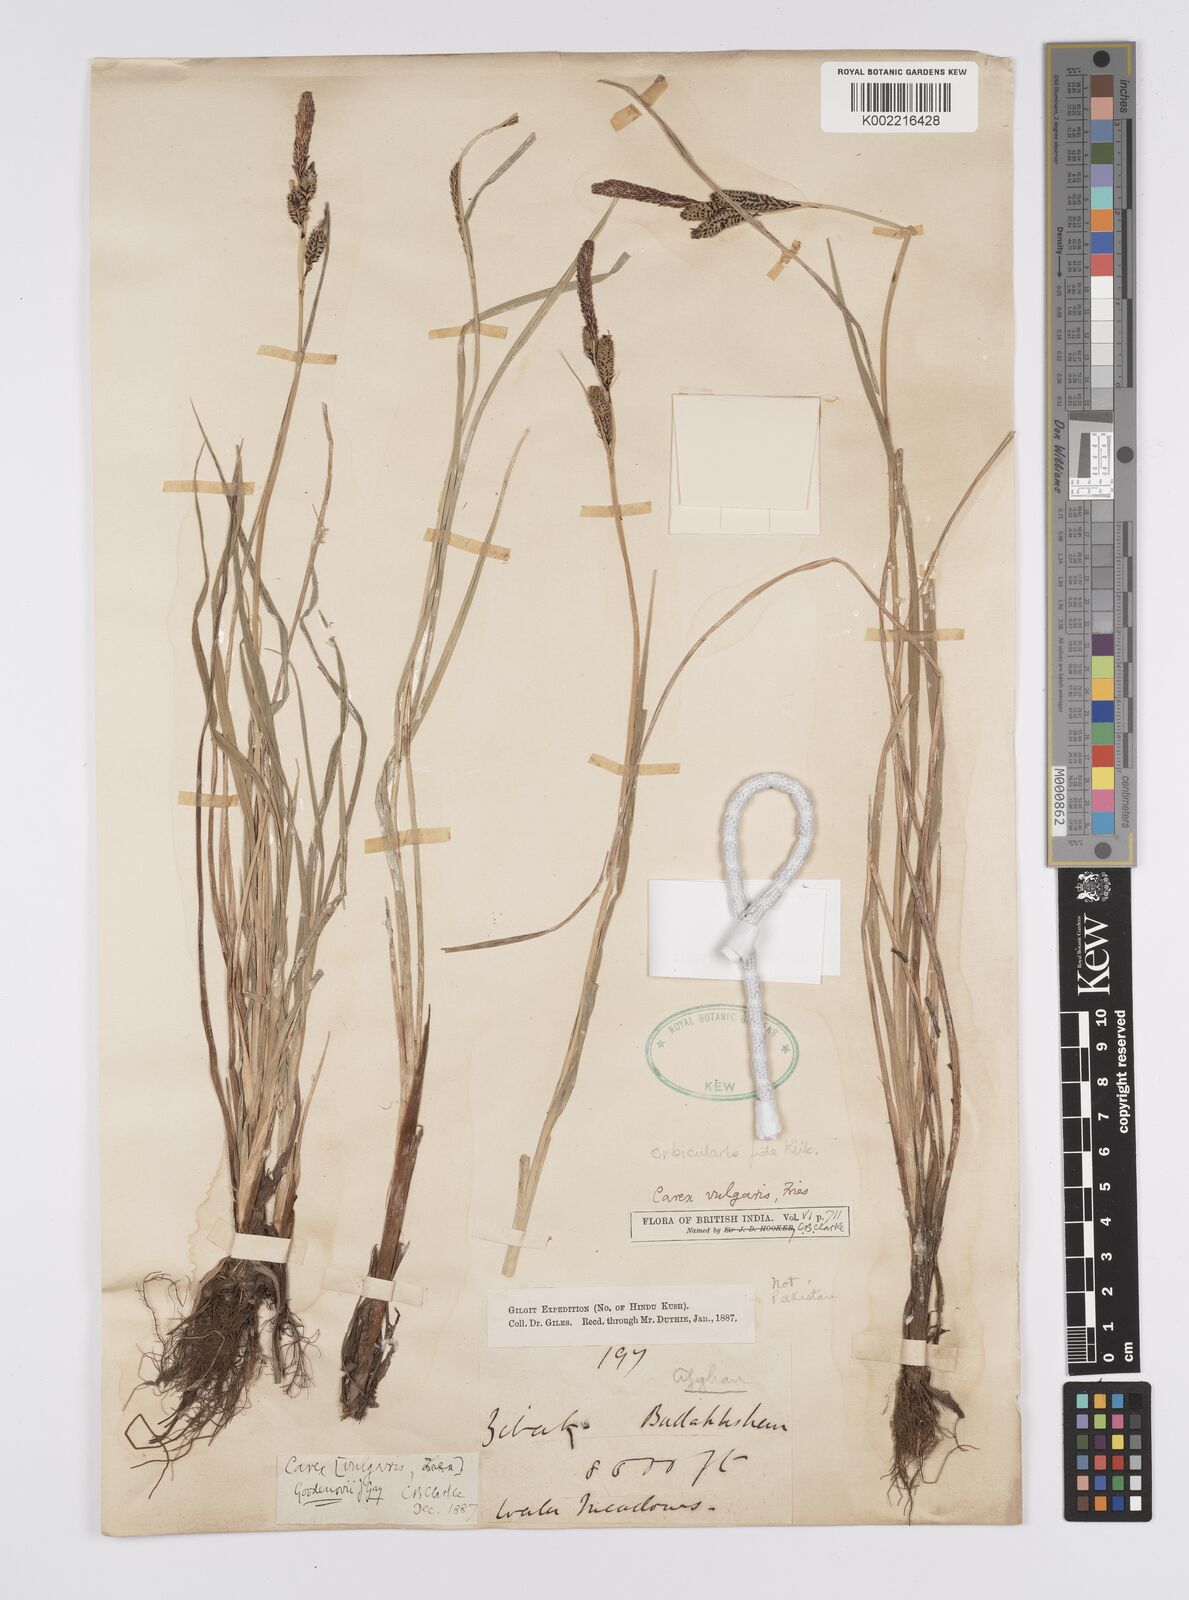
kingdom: Plantae
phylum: Tracheophyta
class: Liliopsida
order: Poales
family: Cyperaceae
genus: Carex
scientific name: Carex orbicularis
